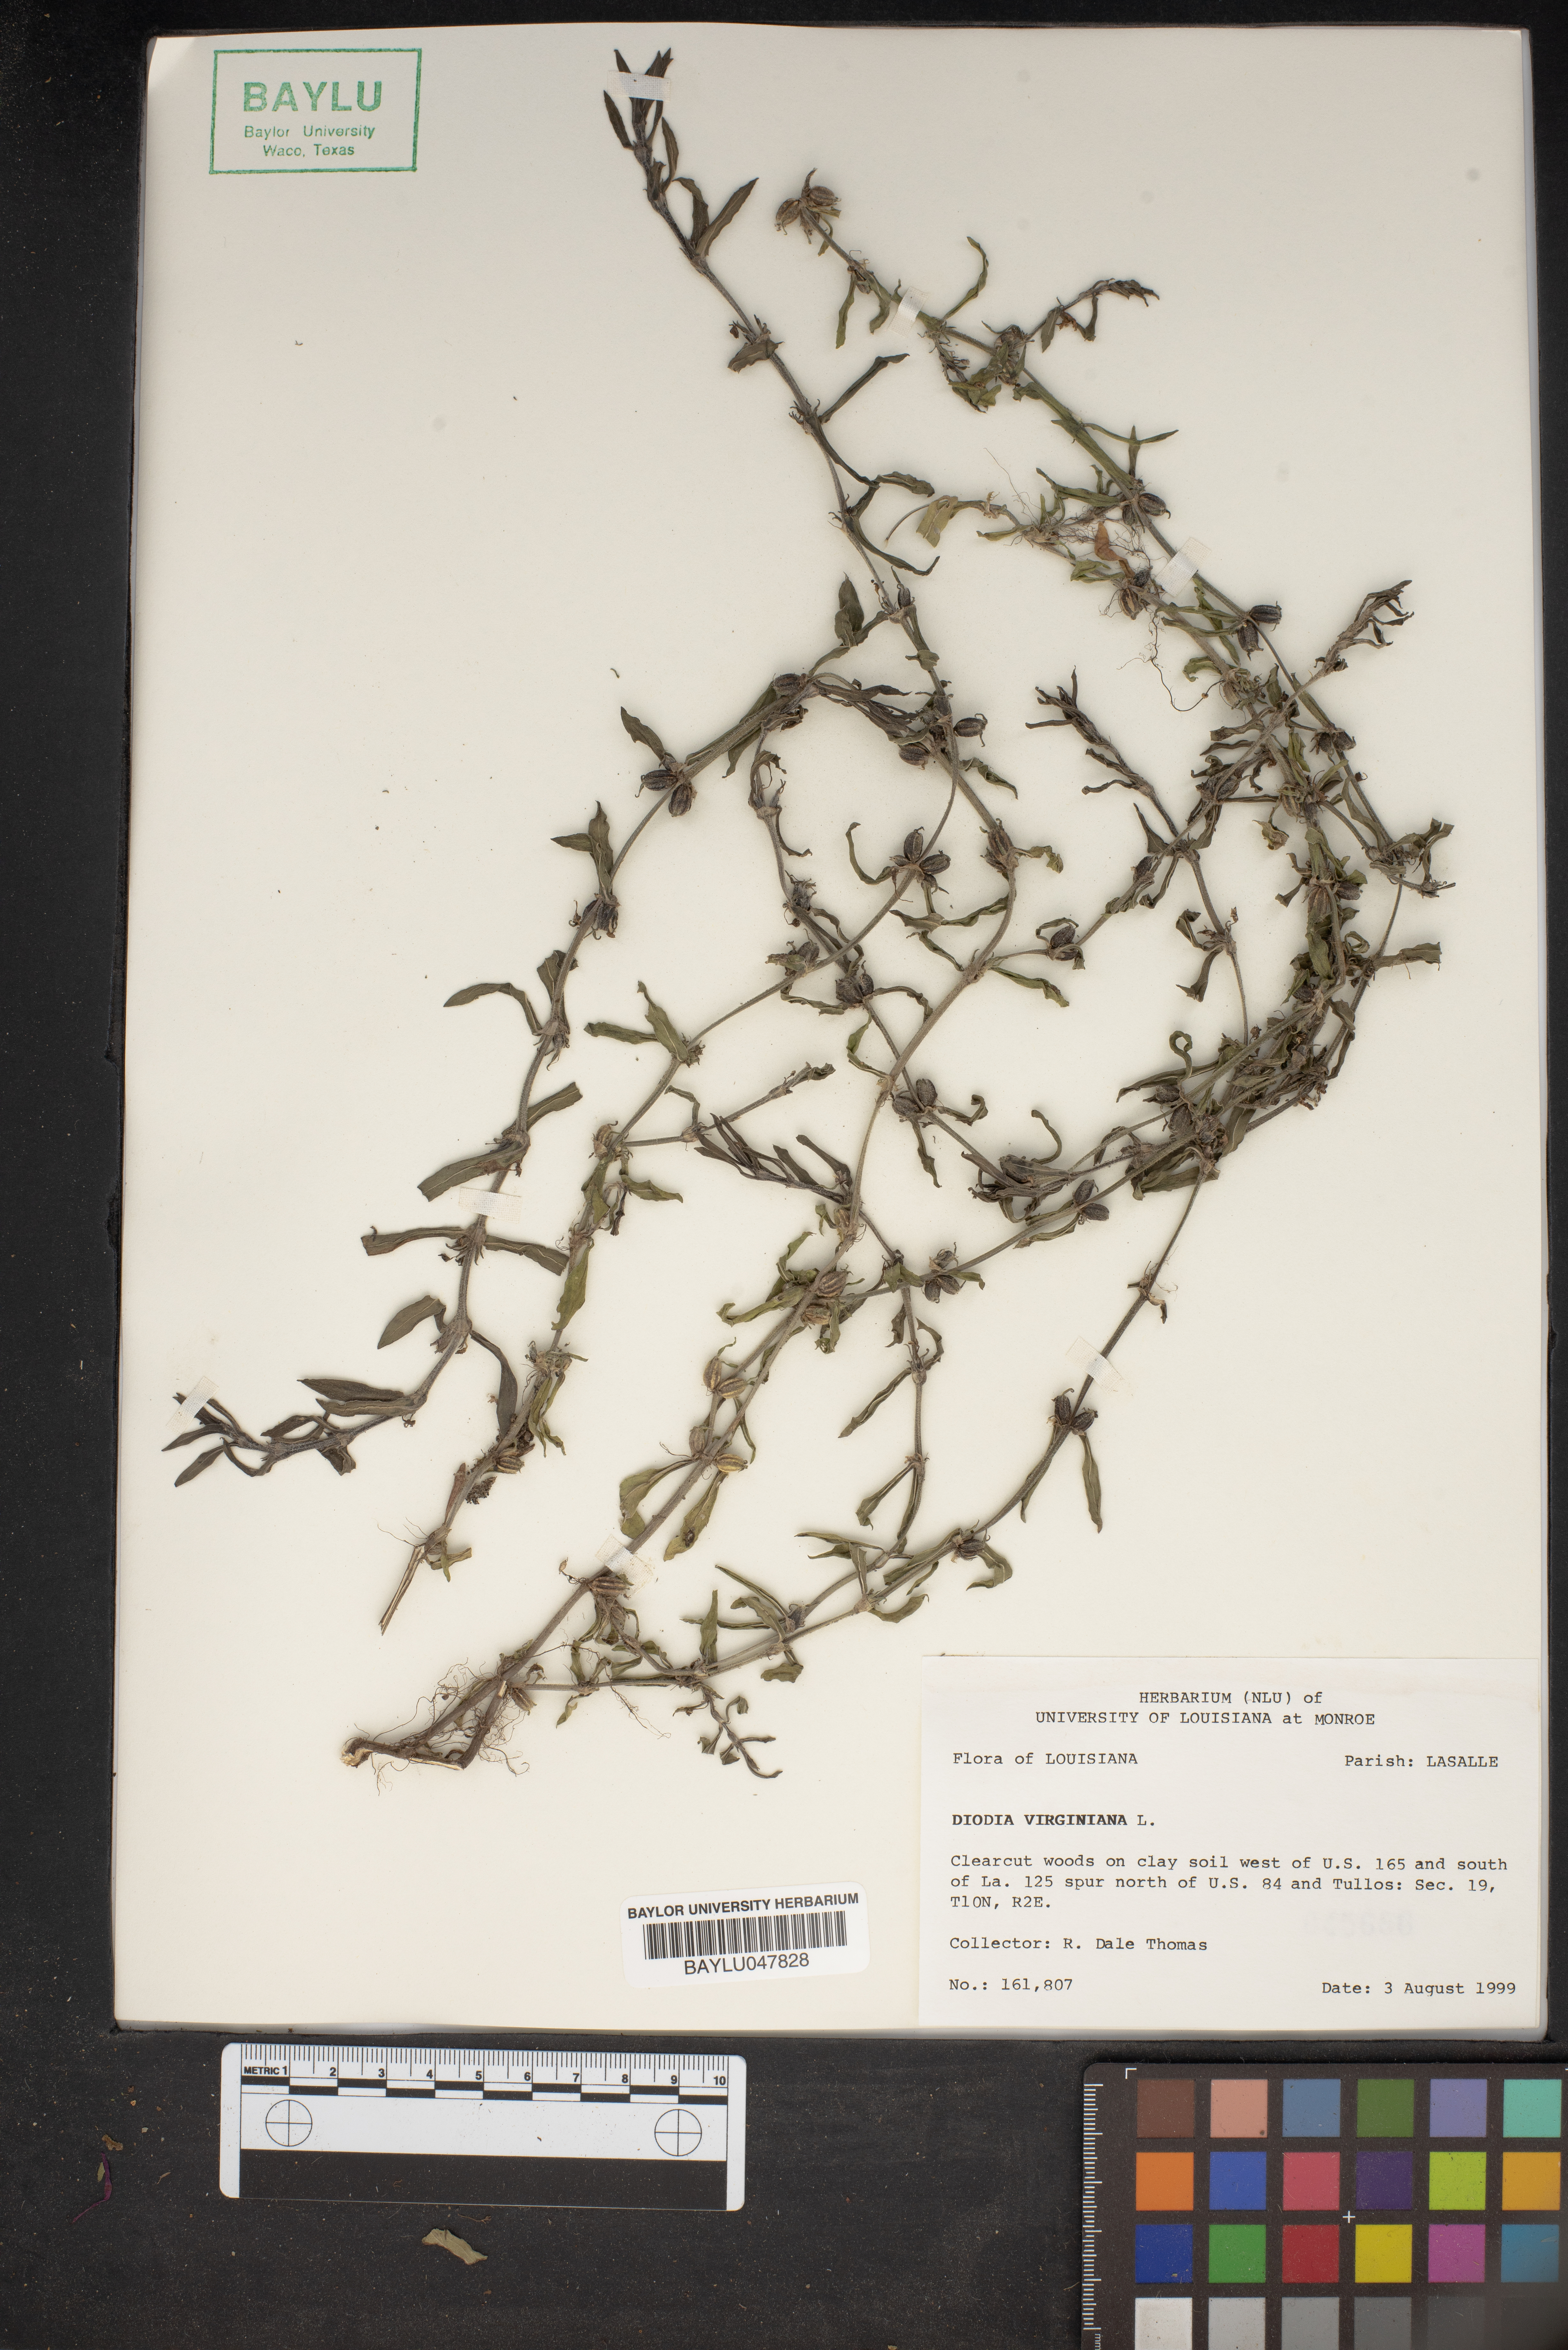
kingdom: Plantae
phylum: Tracheophyta
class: Magnoliopsida
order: Gentianales
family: Rubiaceae
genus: Diodia
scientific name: Diodia virginiana
